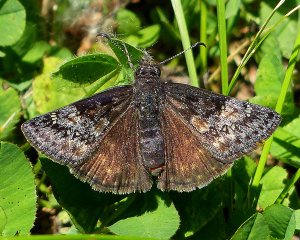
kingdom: Animalia
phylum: Arthropoda
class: Insecta
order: Lepidoptera
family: Hesperiidae
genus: Gesta
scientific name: Gesta
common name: Persius Duskywing
